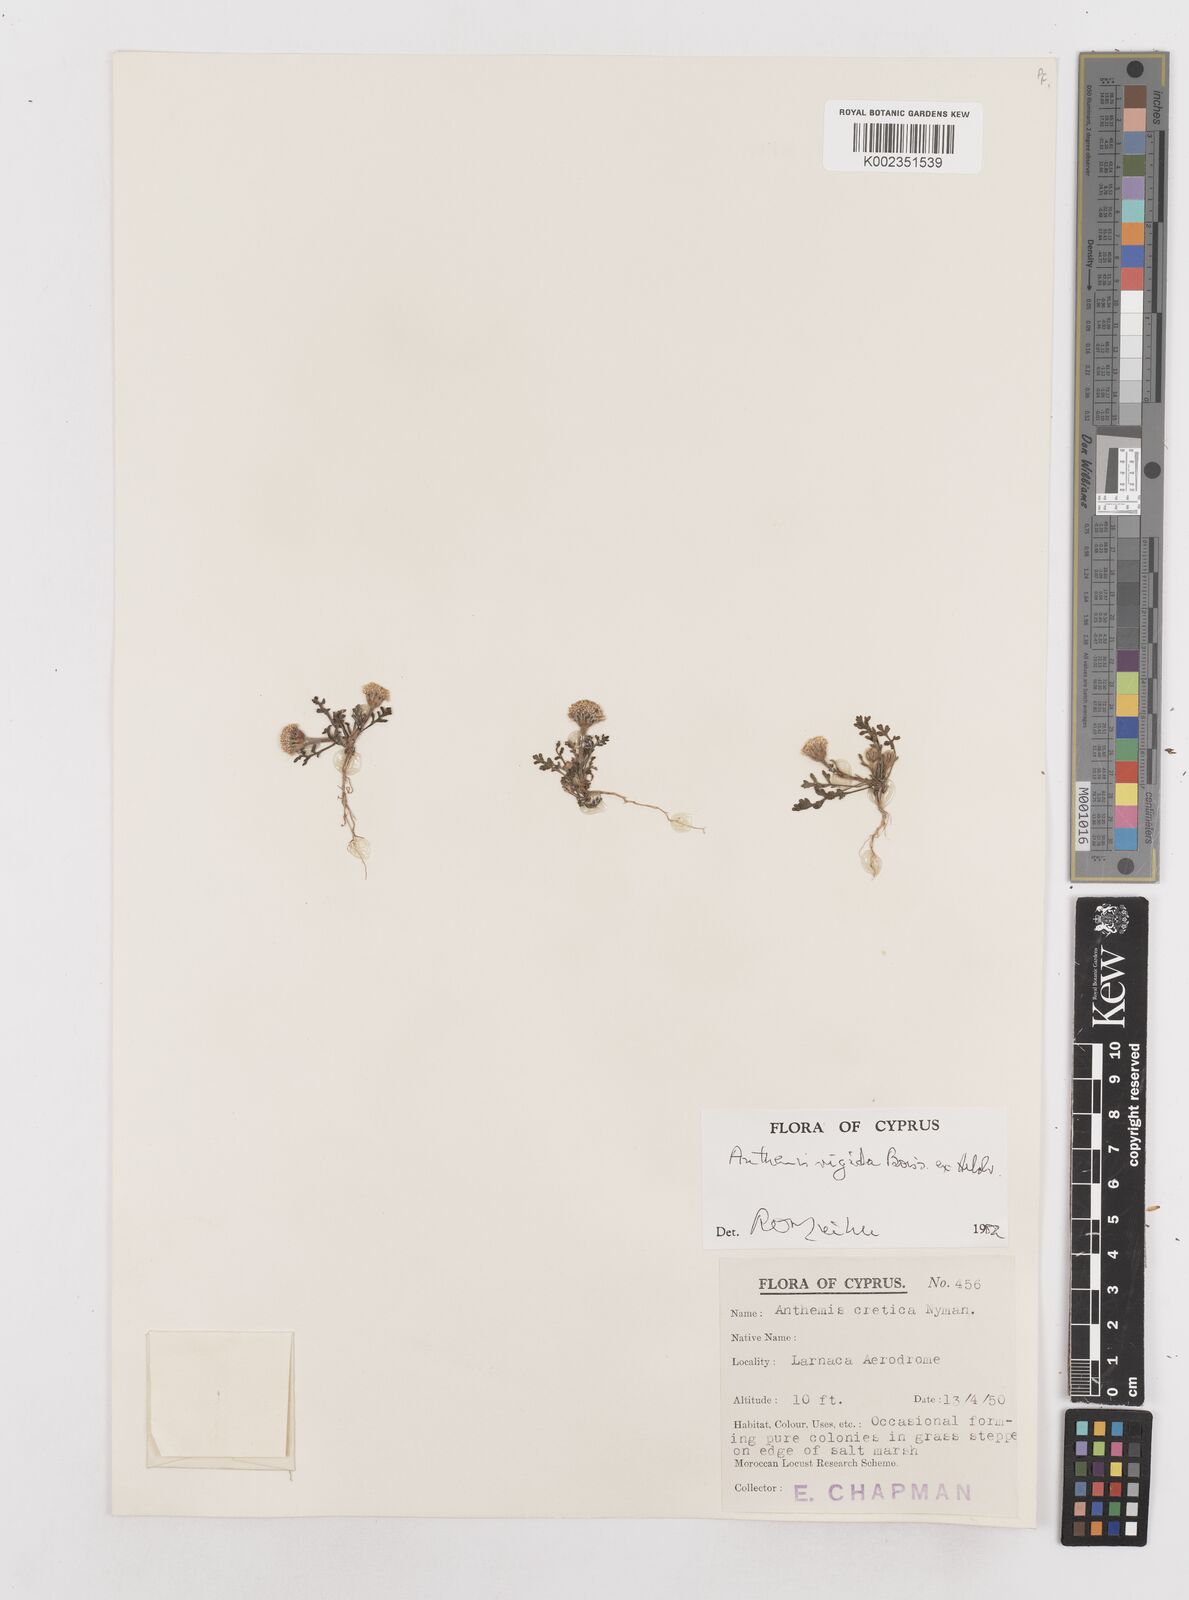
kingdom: Plantae
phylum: Tracheophyta
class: Magnoliopsida
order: Asterales
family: Asteraceae
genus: Anthemis
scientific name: Anthemis rigida
